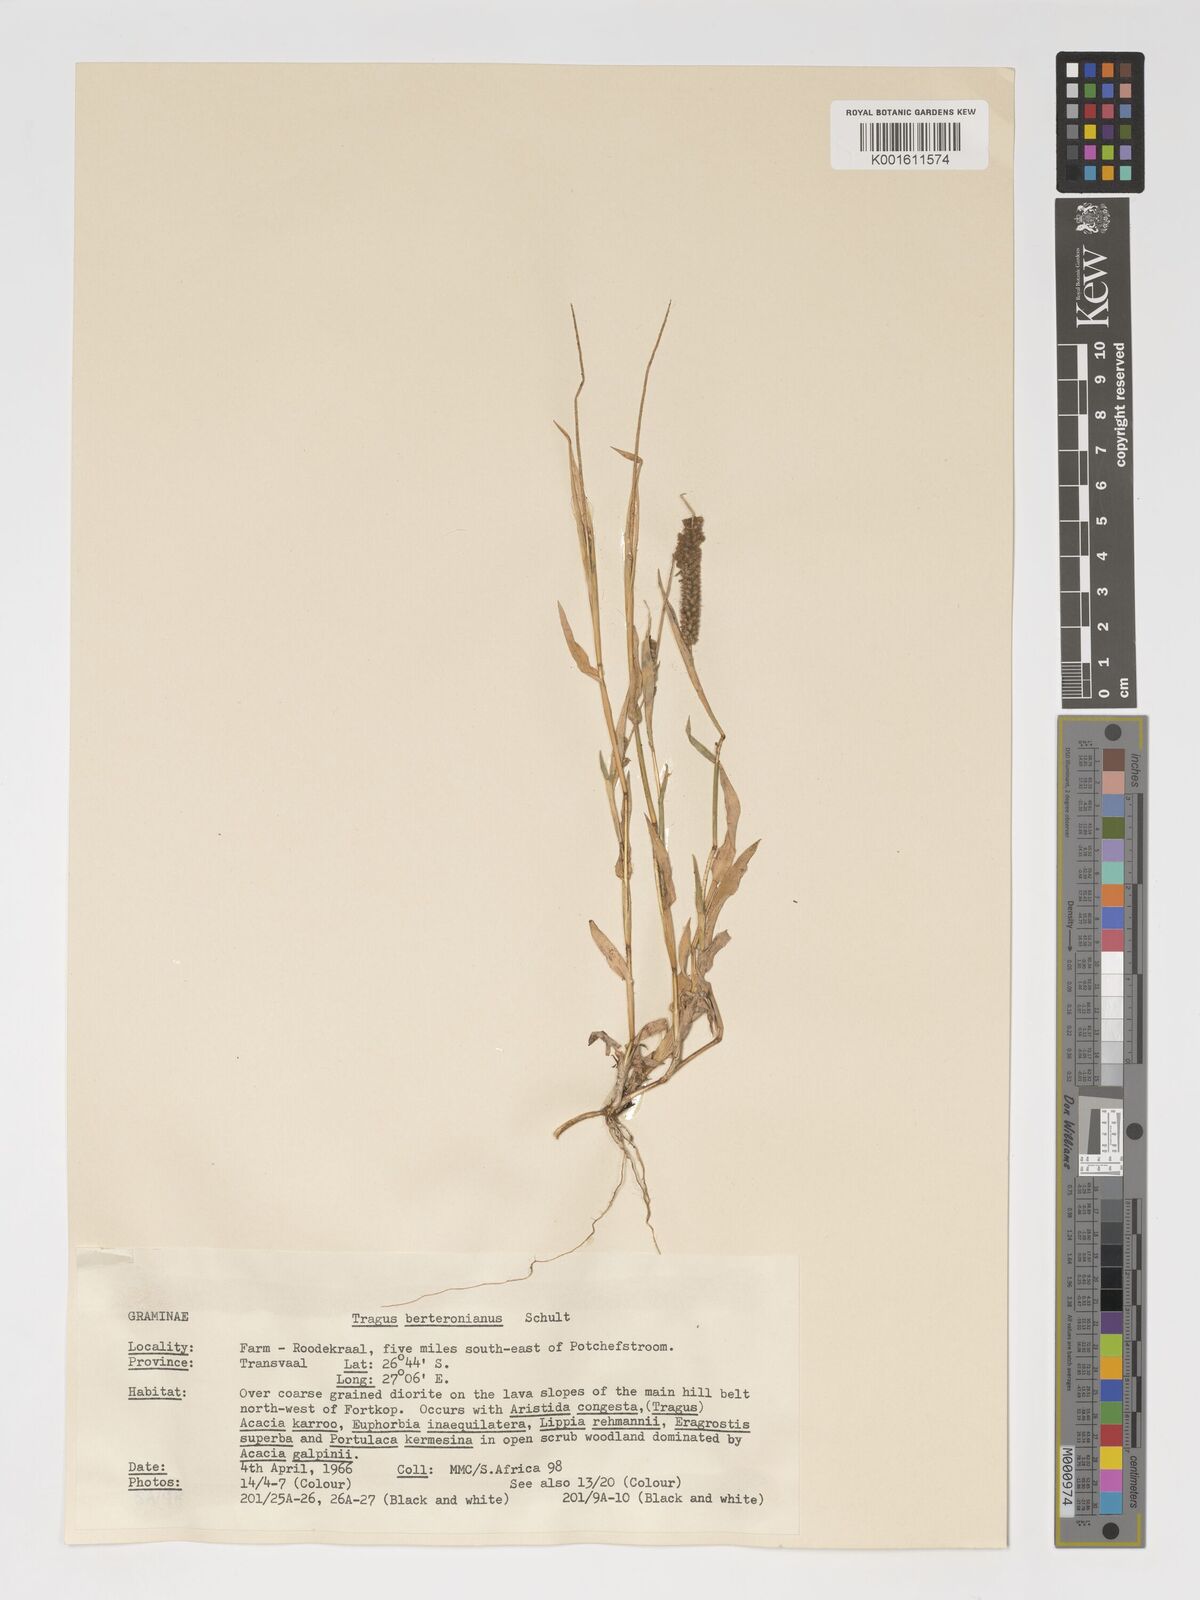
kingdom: Plantae
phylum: Tracheophyta
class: Liliopsida
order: Poales
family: Poaceae
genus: Tragus
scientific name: Tragus berteronianus
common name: African bur-grass
